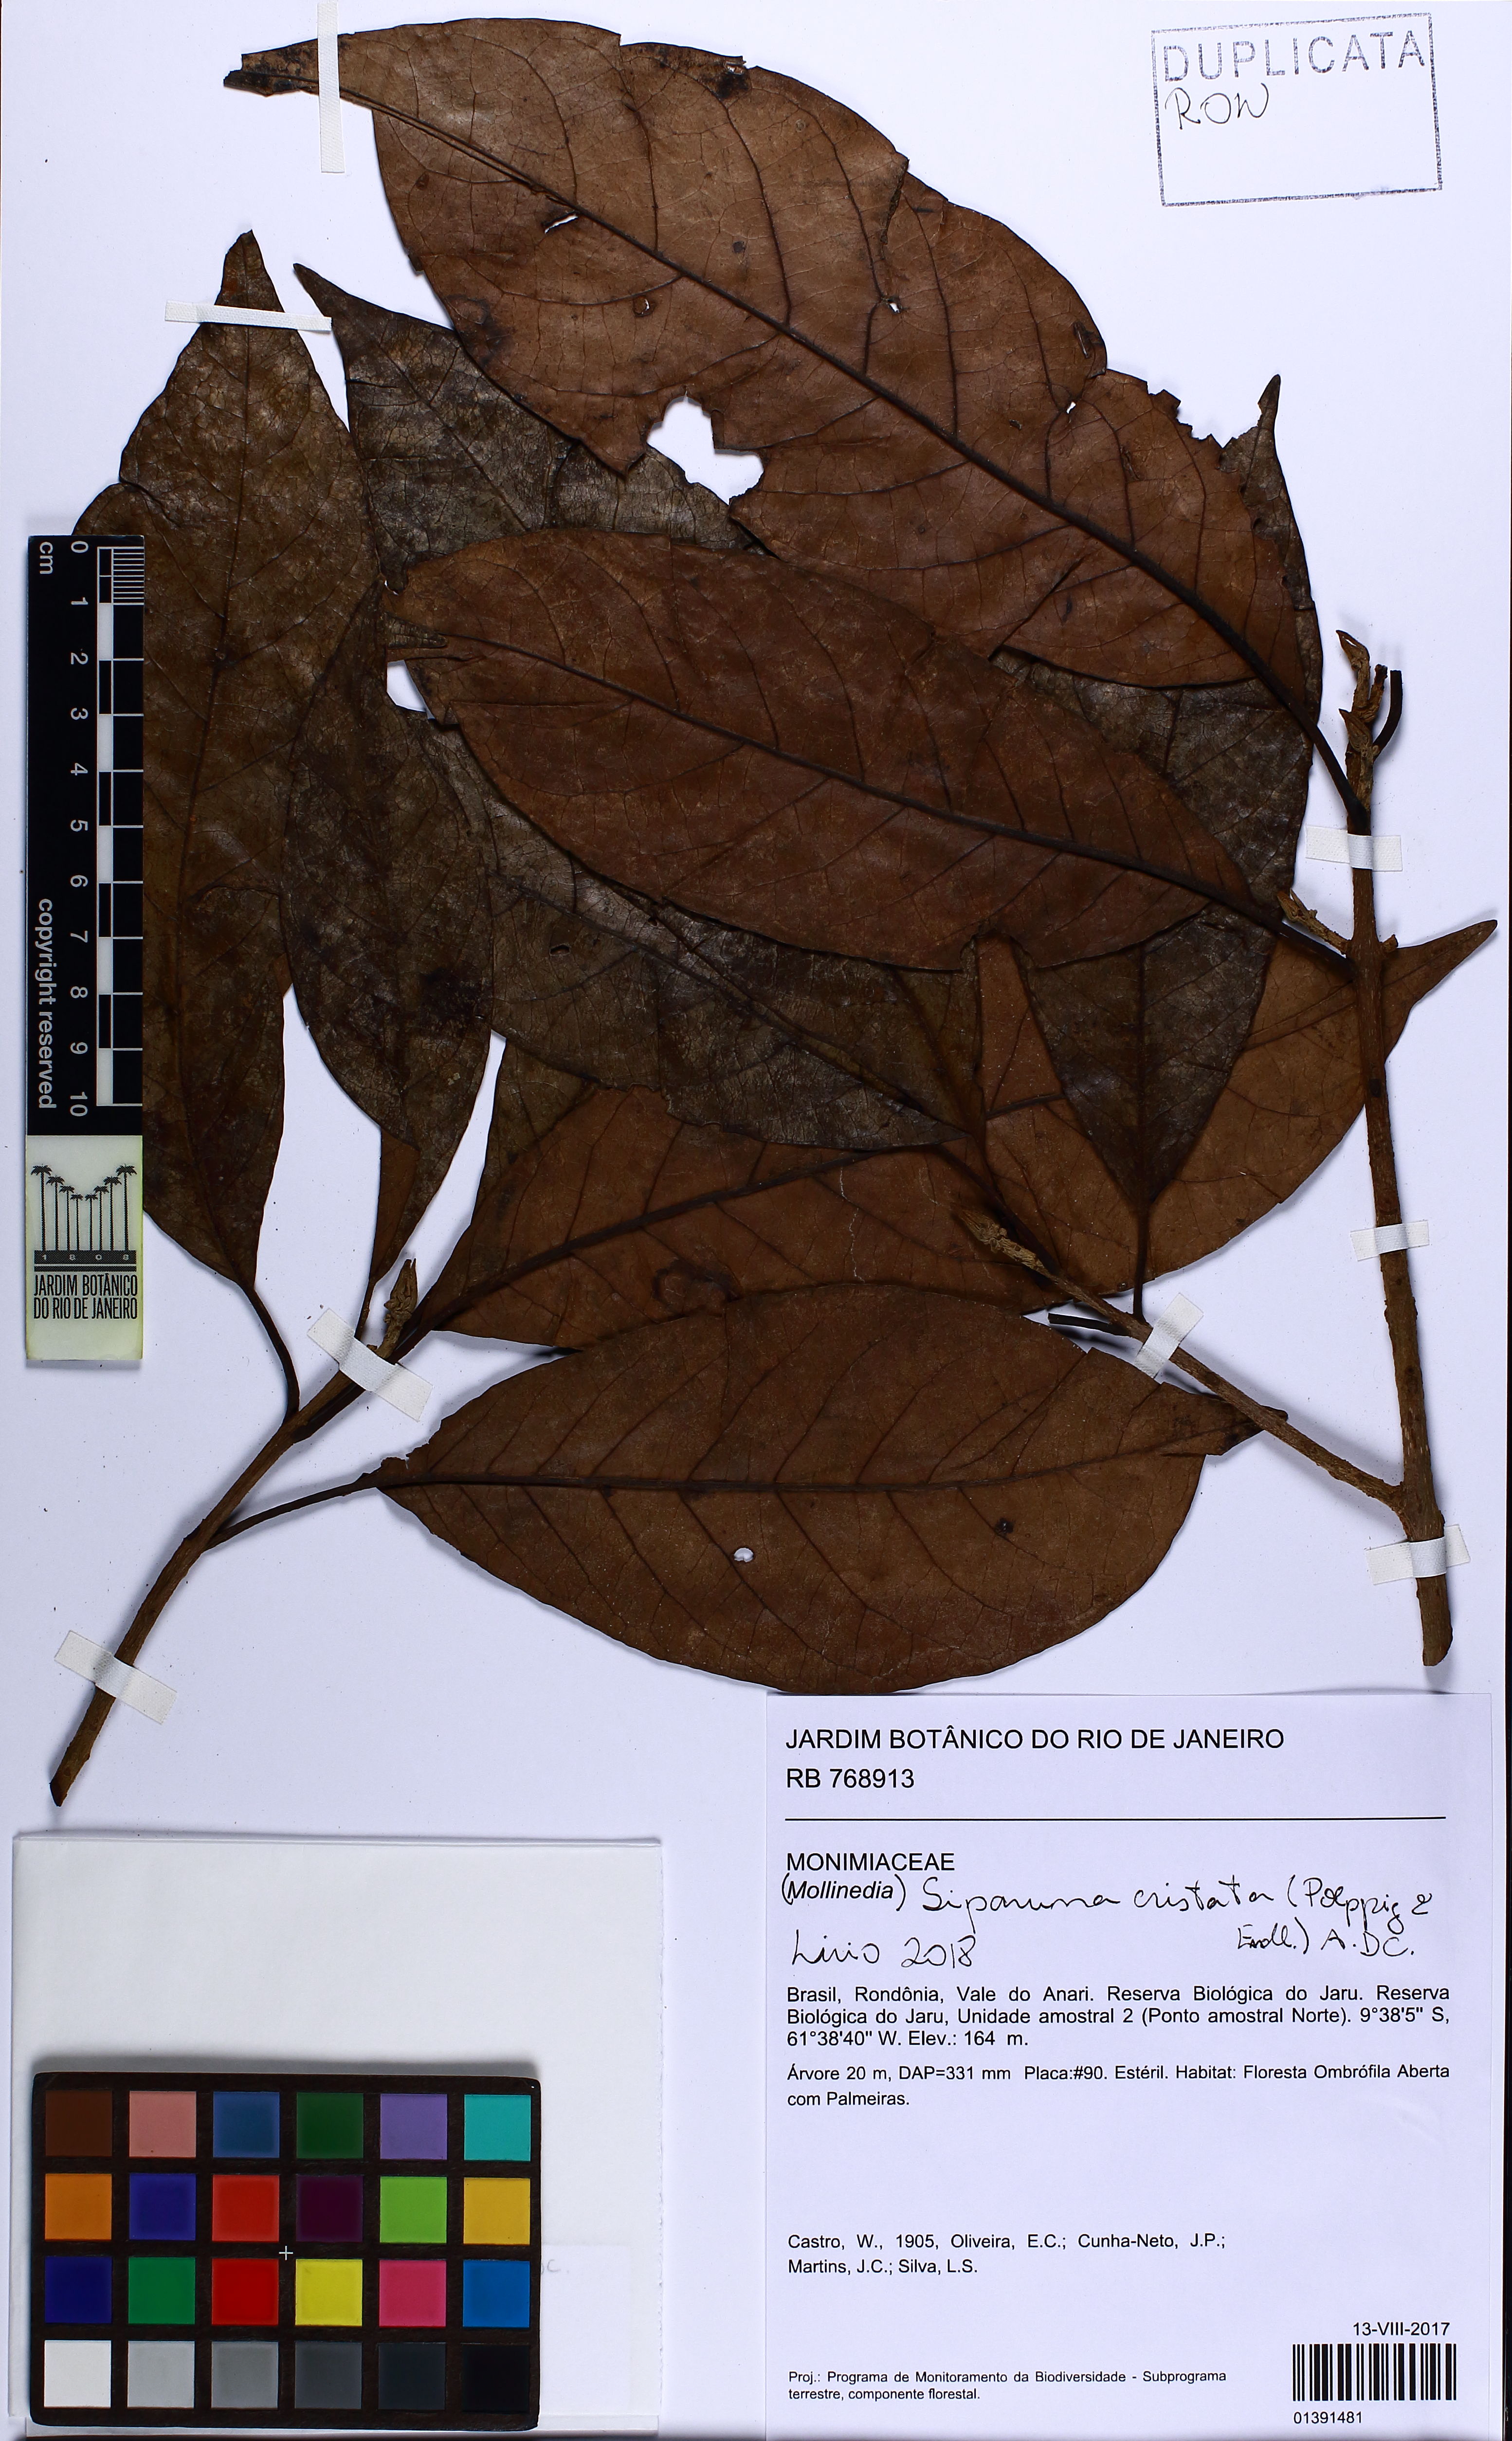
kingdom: Plantae
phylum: Tracheophyta
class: Magnoliopsida
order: Laurales
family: Siparunaceae
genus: Siparuna
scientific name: Siparuna cristata
